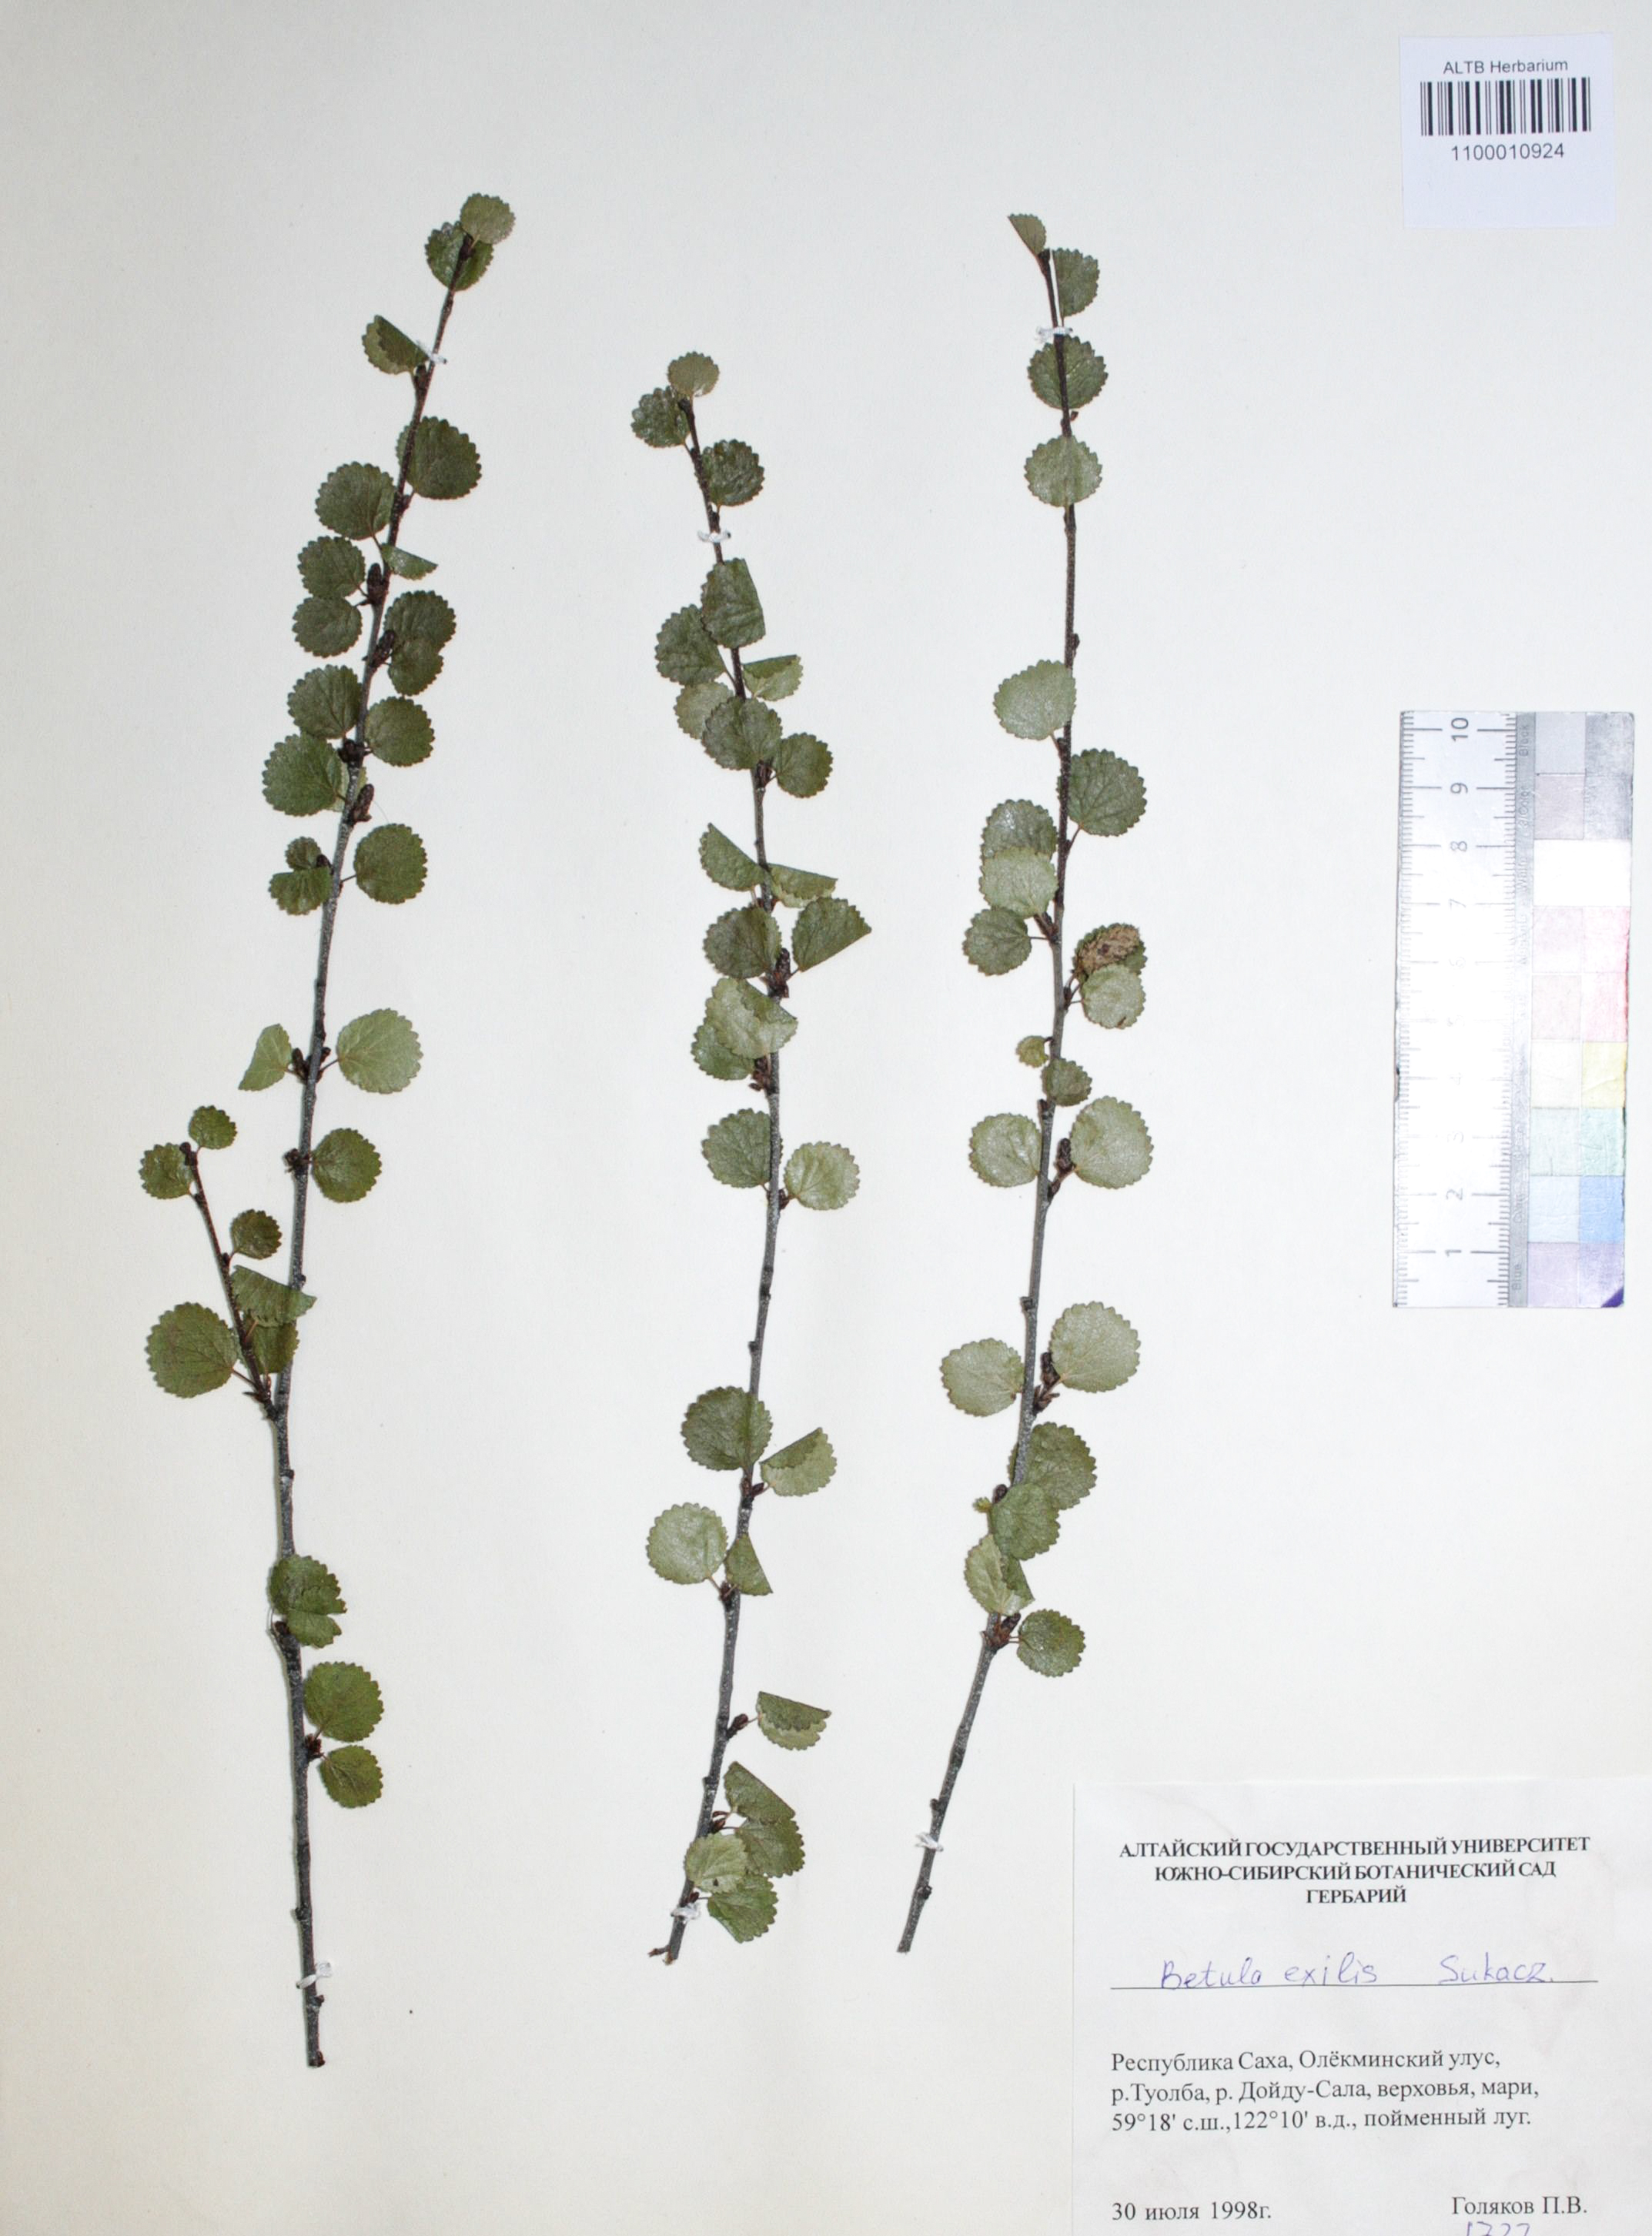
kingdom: Plantae
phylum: Tracheophyta
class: Magnoliopsida
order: Fagales
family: Betulaceae
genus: Betula
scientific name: Betula glandulosa
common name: Dwarf birch
